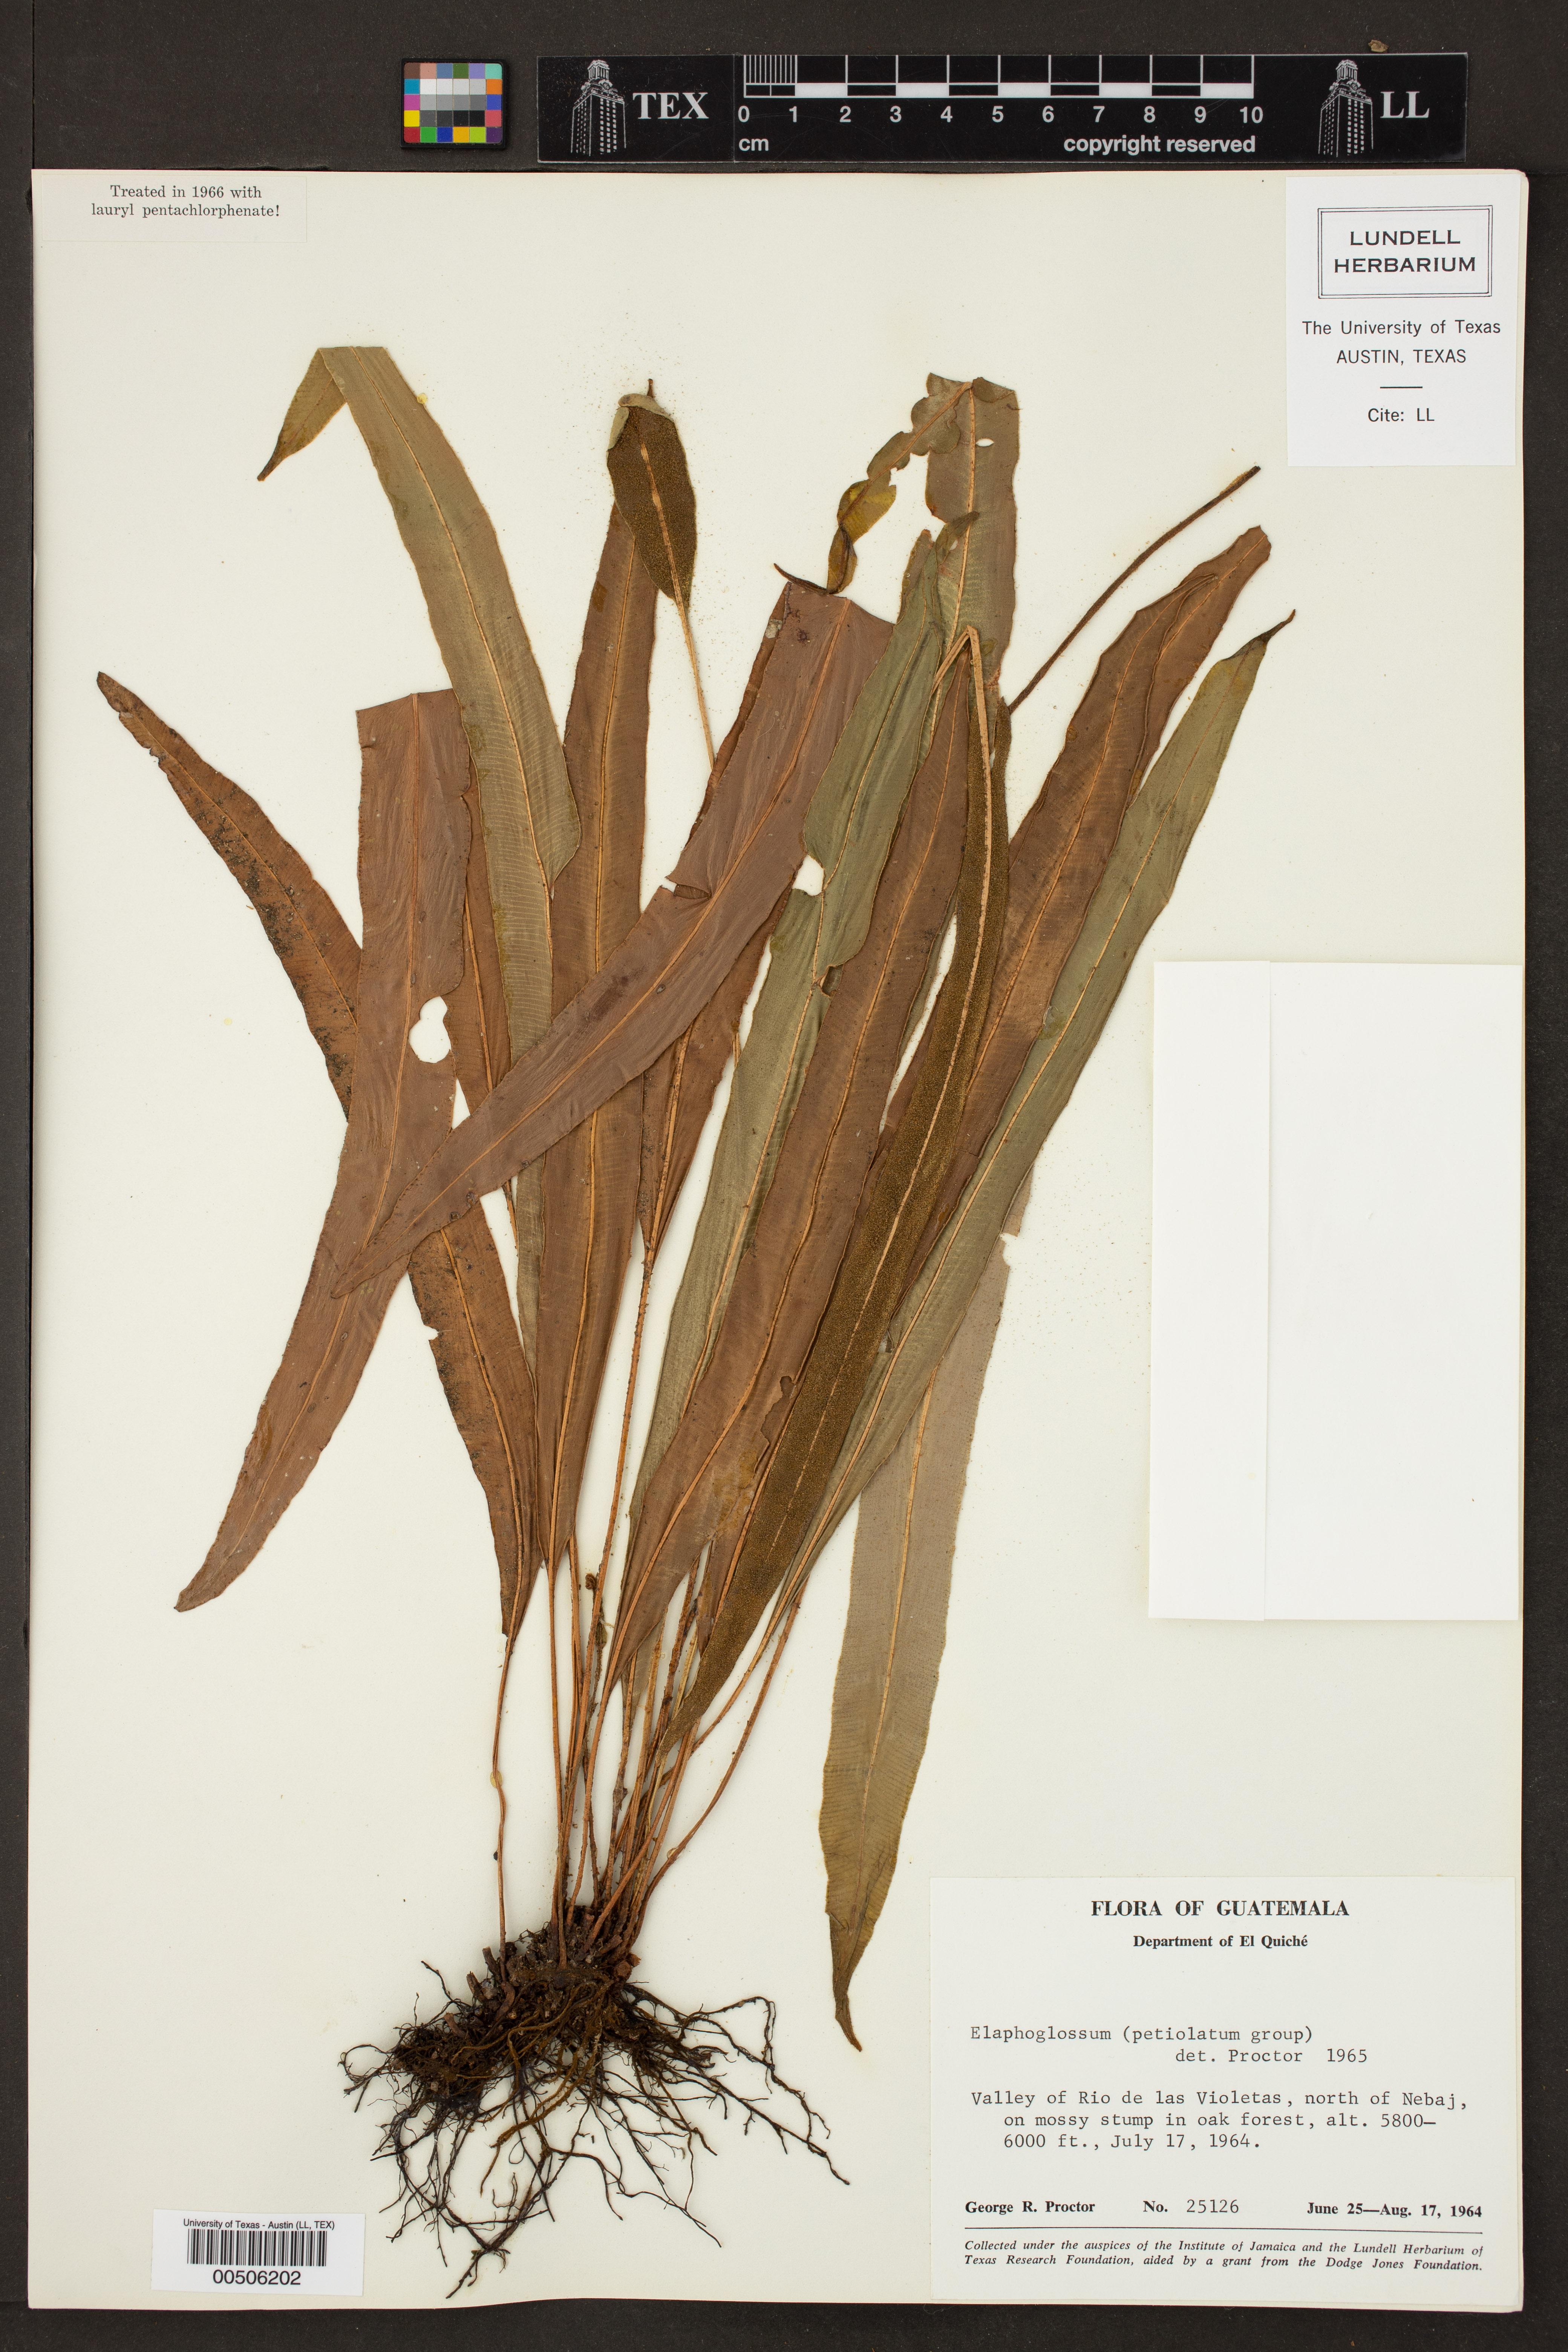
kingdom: Plantae
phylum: Tracheophyta
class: Polypodiopsida
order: Polypodiales
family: Dryopteridaceae
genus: Elaphoglossum
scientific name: Elaphoglossum petiolatum
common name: Graceful tonguefern
